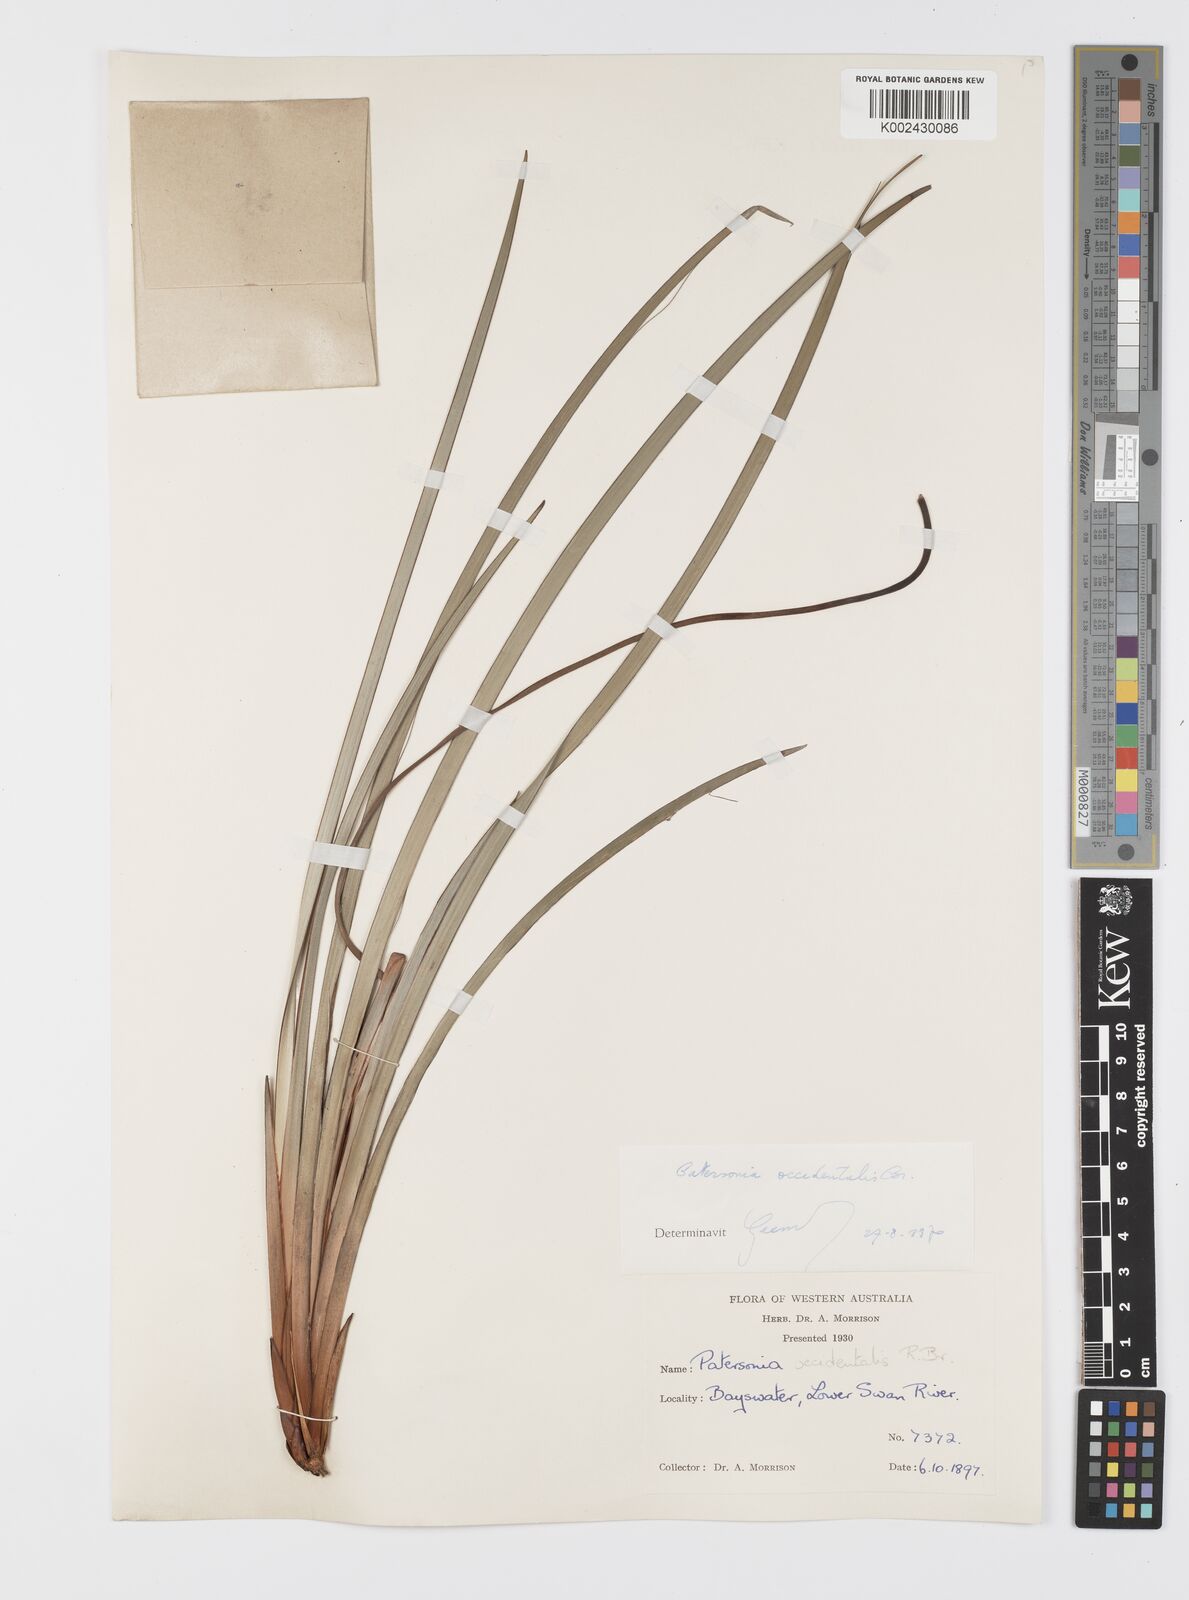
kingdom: Plantae
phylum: Tracheophyta
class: Liliopsida
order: Asparagales
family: Iridaceae
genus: Patersonia
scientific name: Patersonia occidentalis
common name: Long purple-flag
